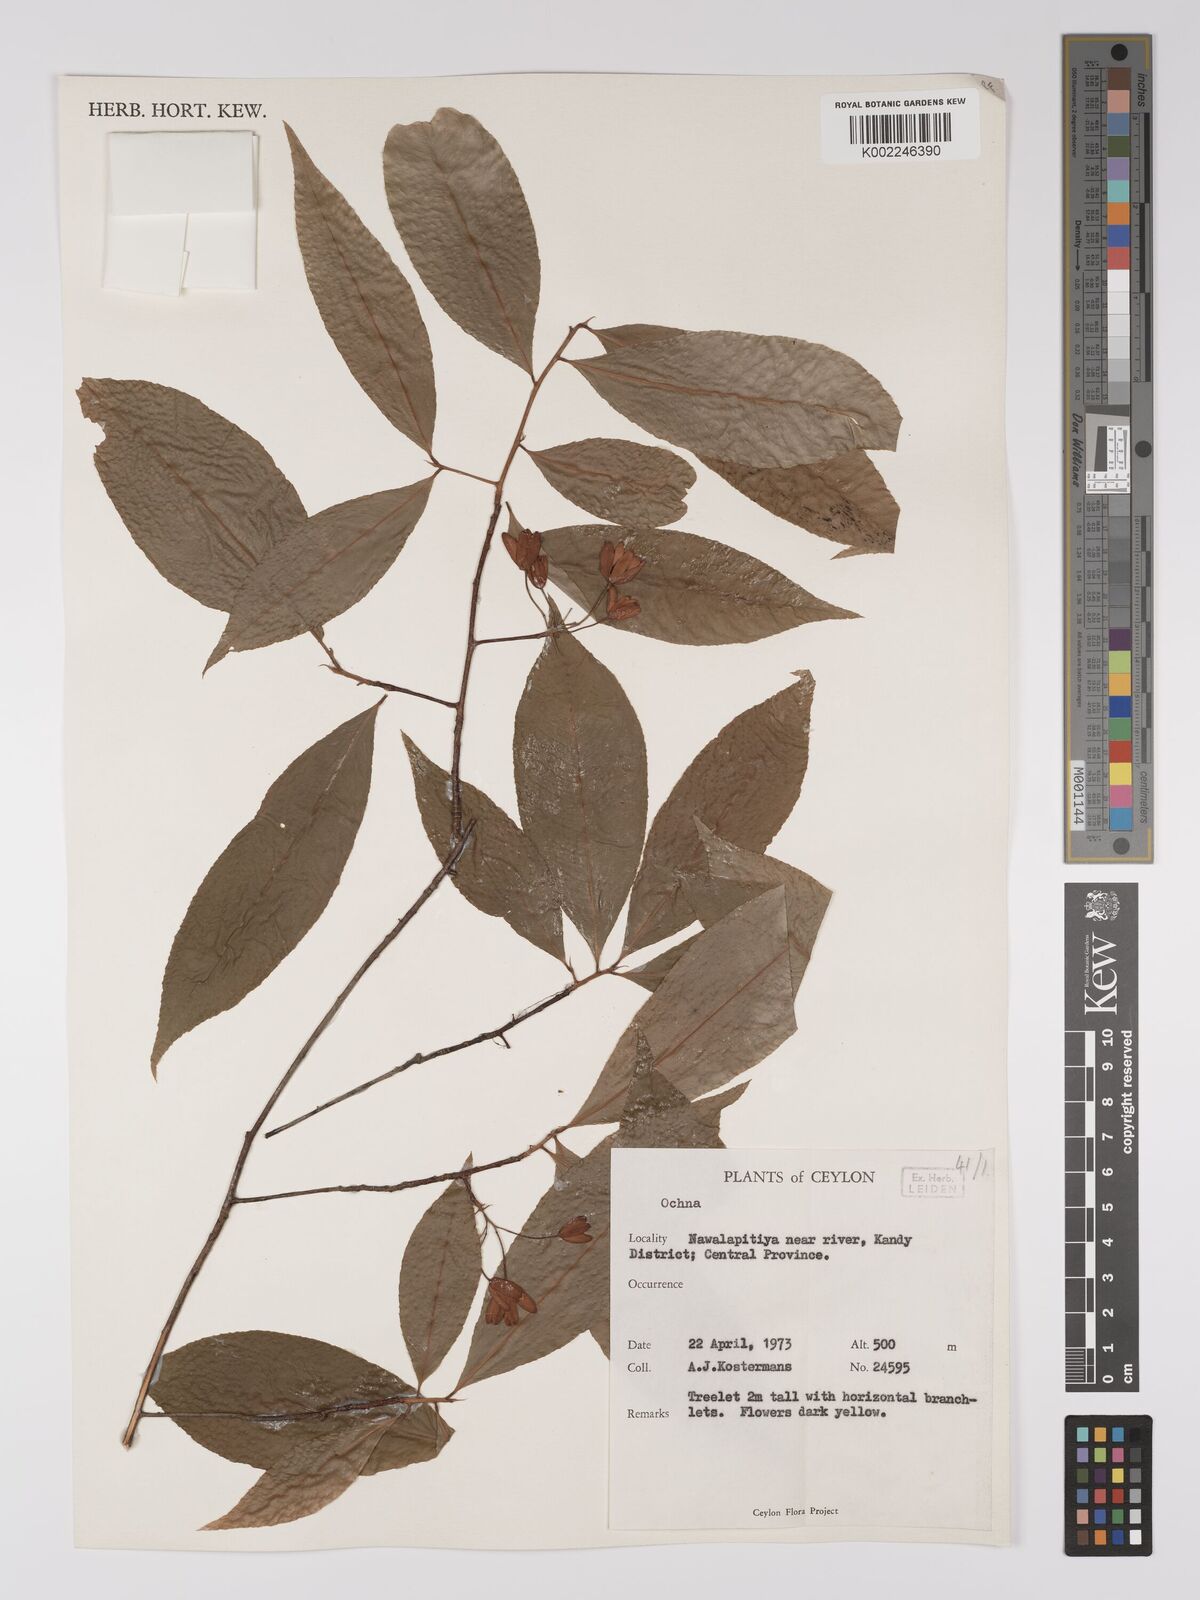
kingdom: Plantae
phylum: Tracheophyta
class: Magnoliopsida
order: Malpighiales
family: Ochnaceae
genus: Ochna
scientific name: Ochna
